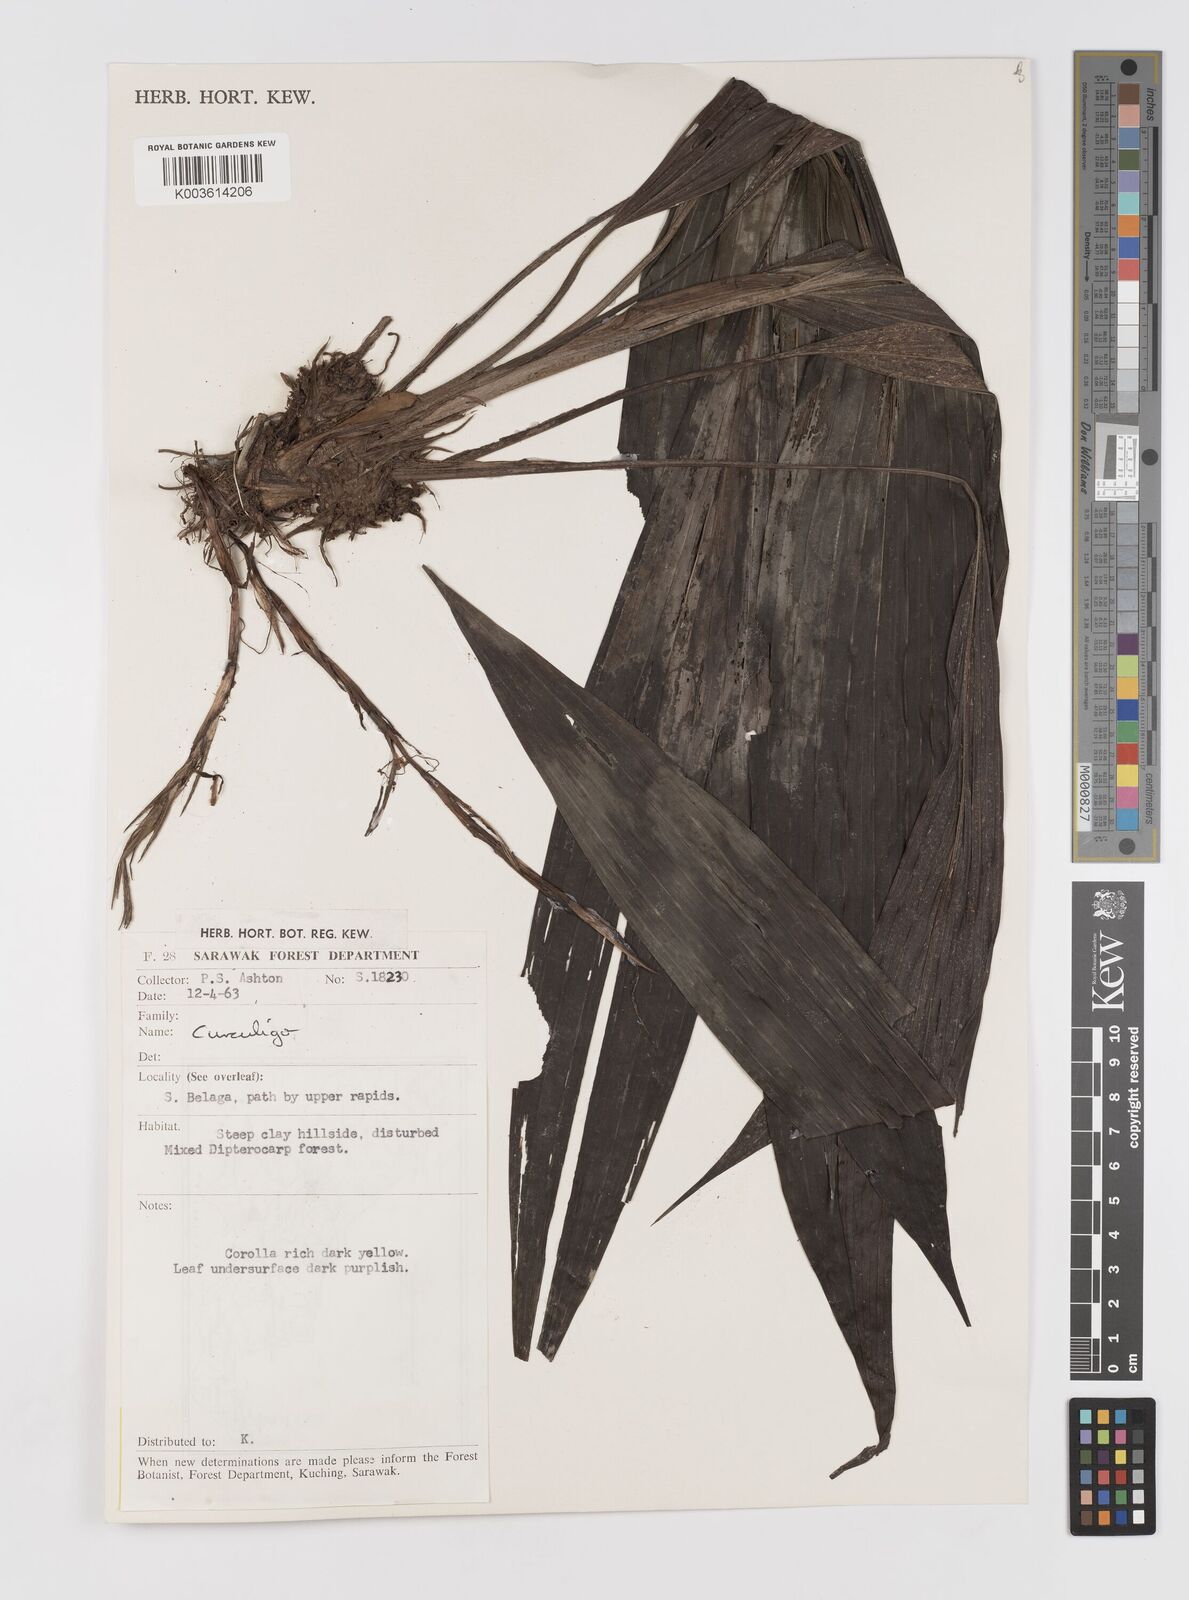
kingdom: Plantae
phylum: Tracheophyta
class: Liliopsida
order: Asparagales
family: Hypoxidaceae
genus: Curculigo
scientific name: Curculigo
